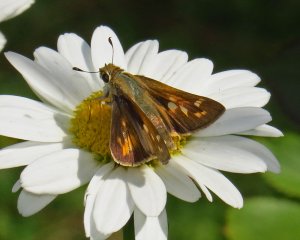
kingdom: Animalia
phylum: Arthropoda
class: Insecta
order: Lepidoptera
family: Hesperiidae
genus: Atalopedes
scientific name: Atalopedes campestris
